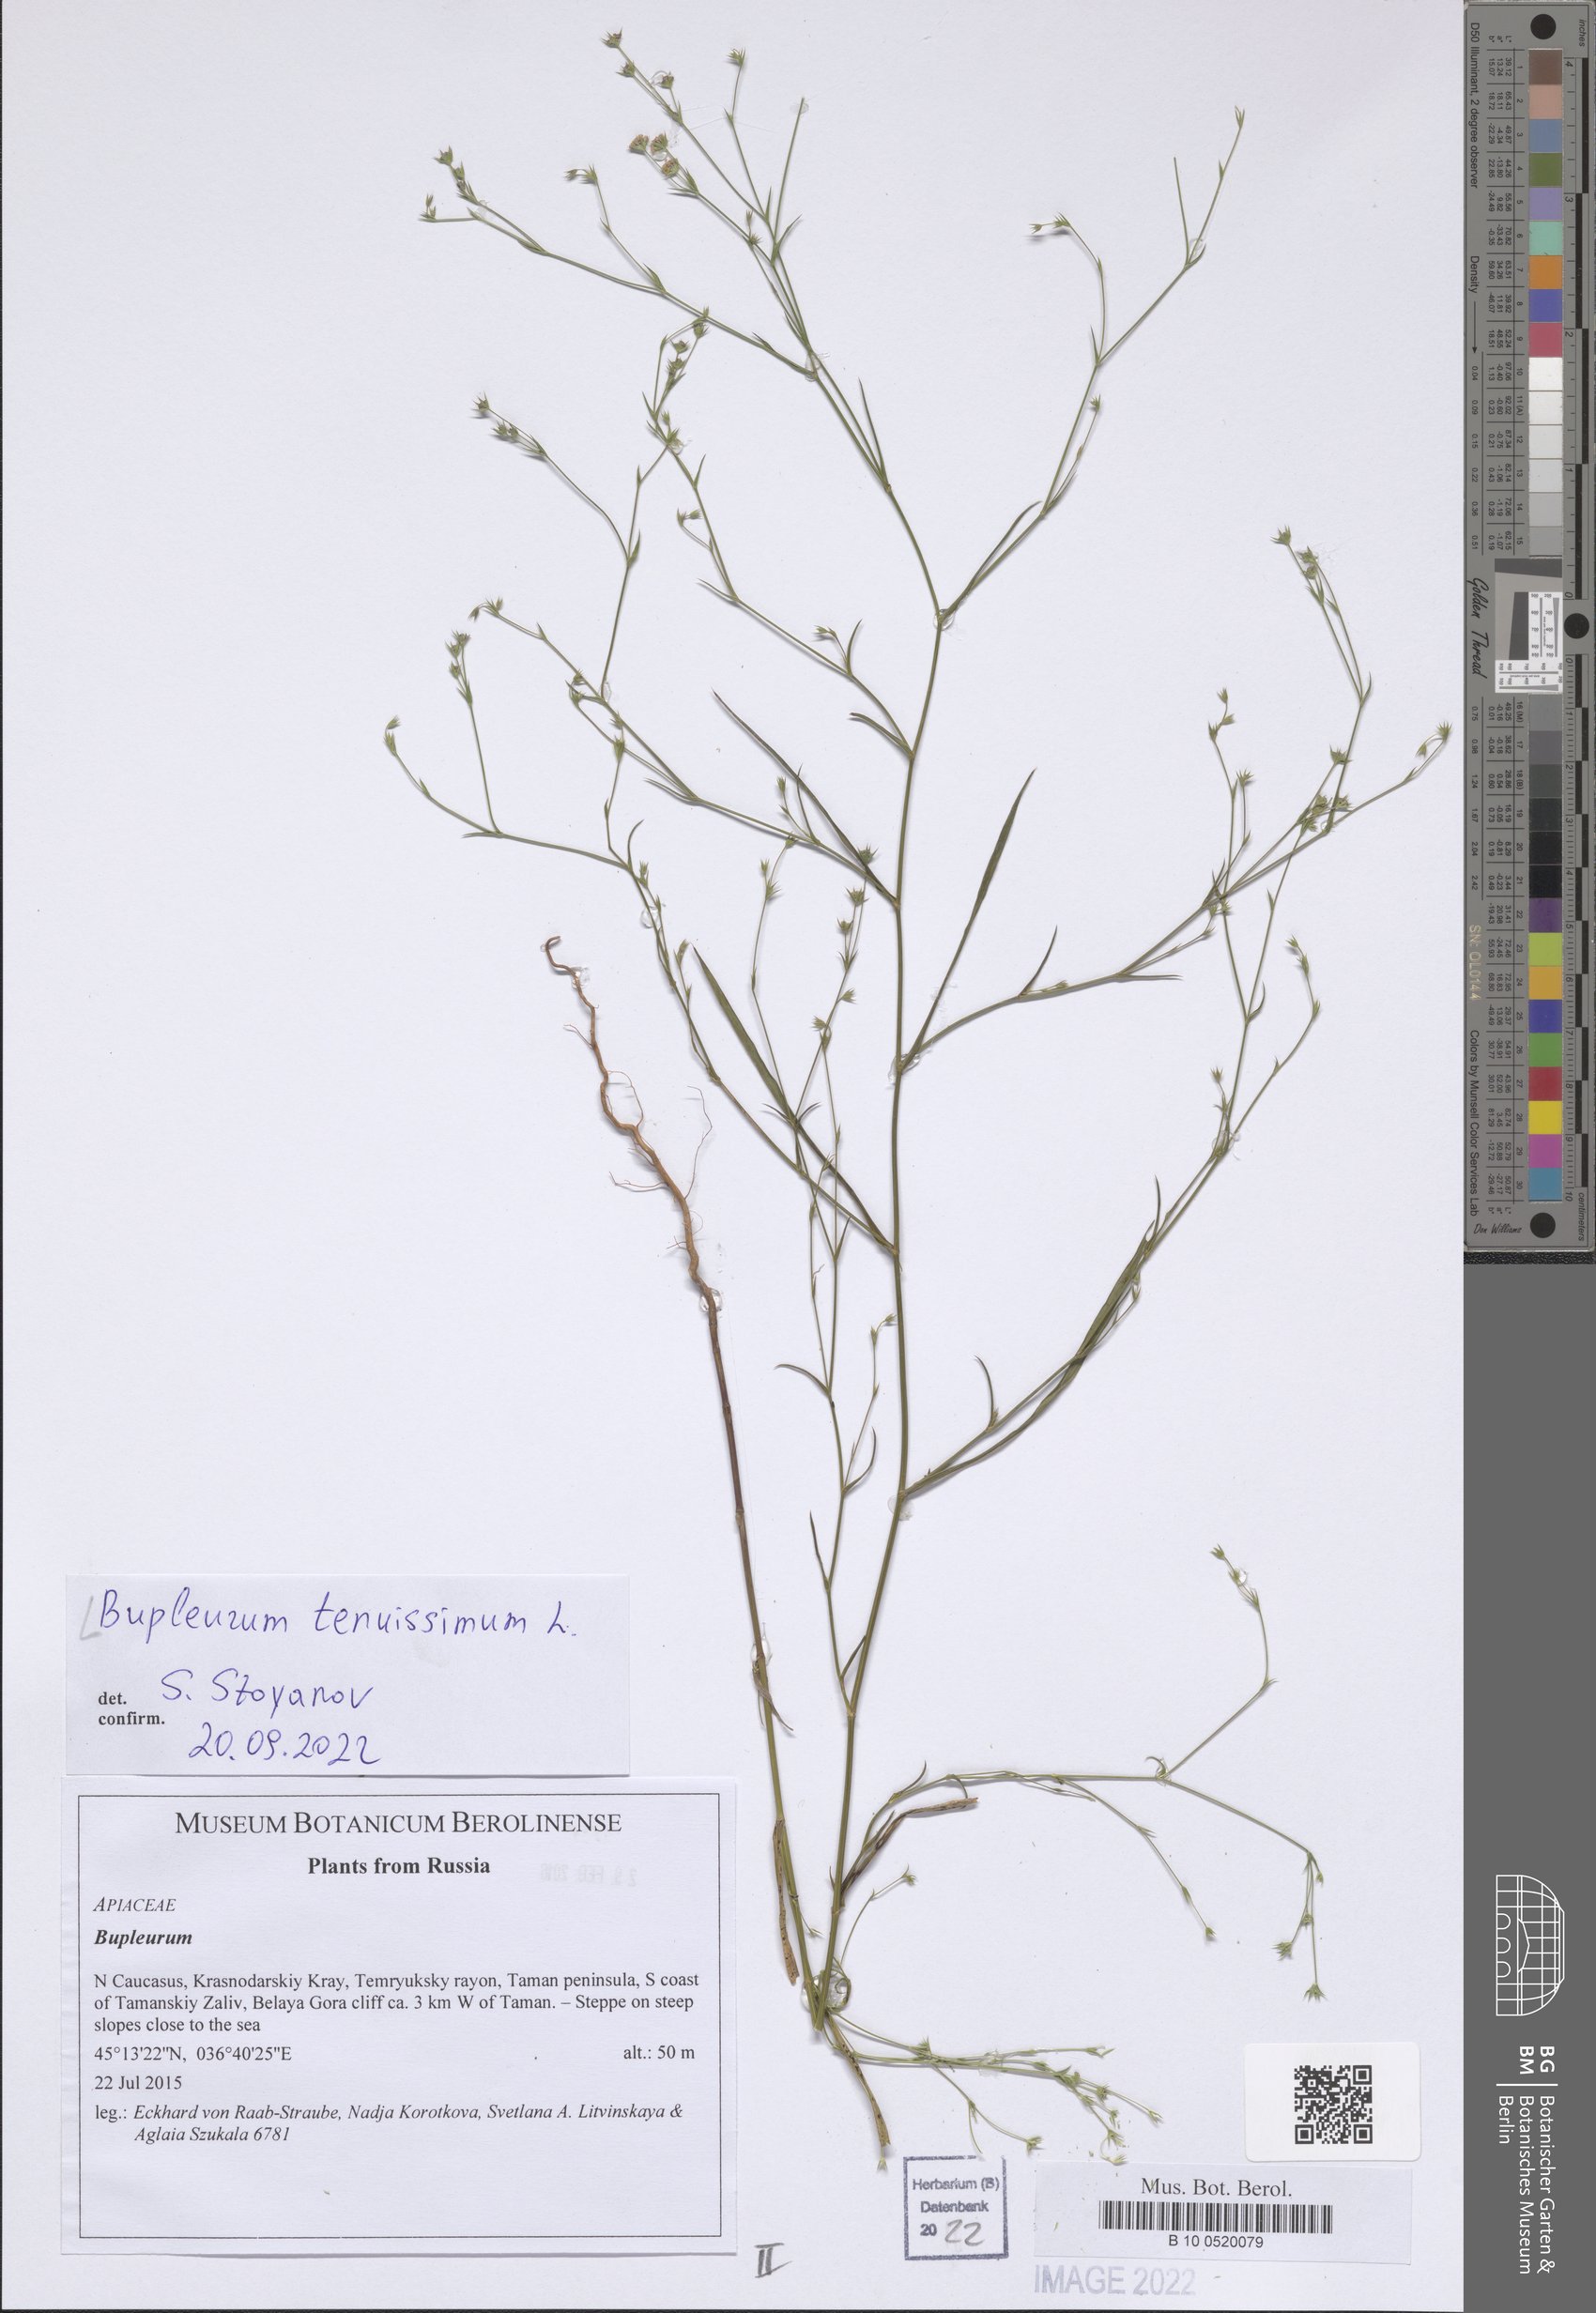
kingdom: Plantae
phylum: Tracheophyta
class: Magnoliopsida
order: Apiales
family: Apiaceae
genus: Bupleurum
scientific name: Bupleurum
